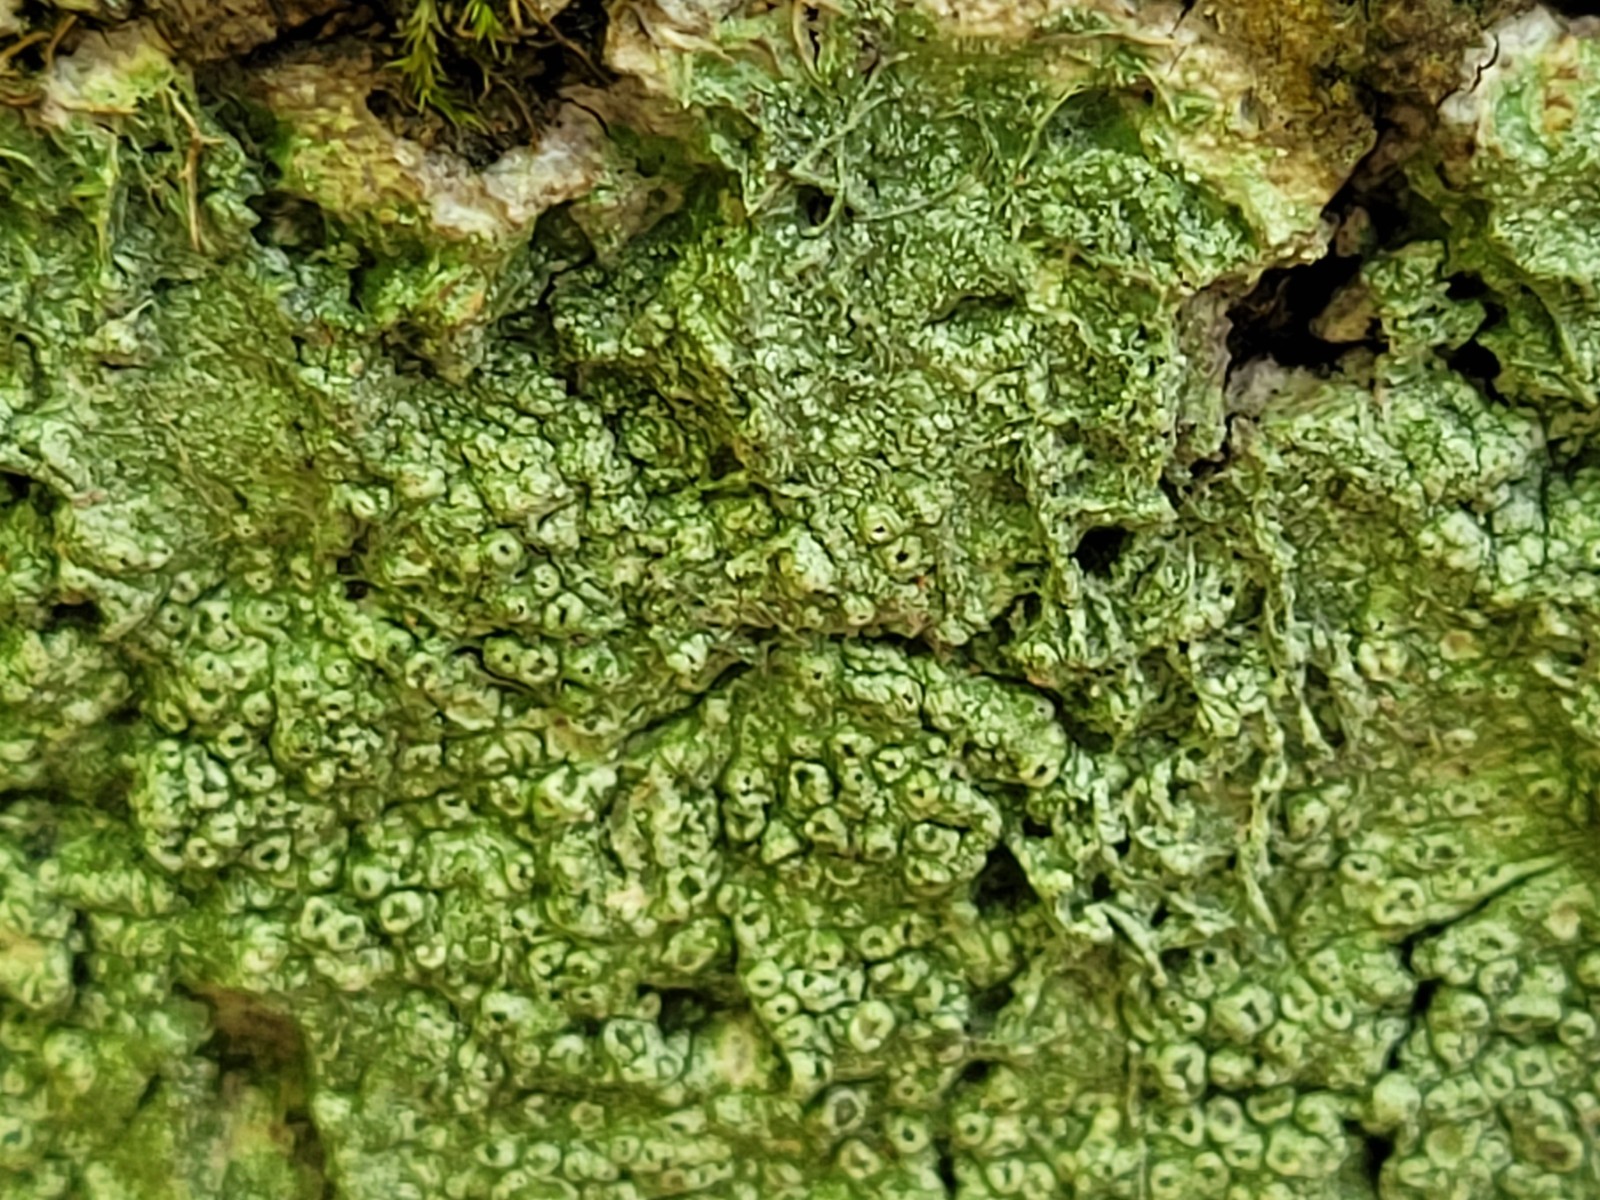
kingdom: Fungi
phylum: Ascomycota
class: Lecanoromycetes
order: Pertusariales
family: Pertusariaceae
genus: Pertusaria
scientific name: Pertusaria hymenea
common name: åben prikvortelav
